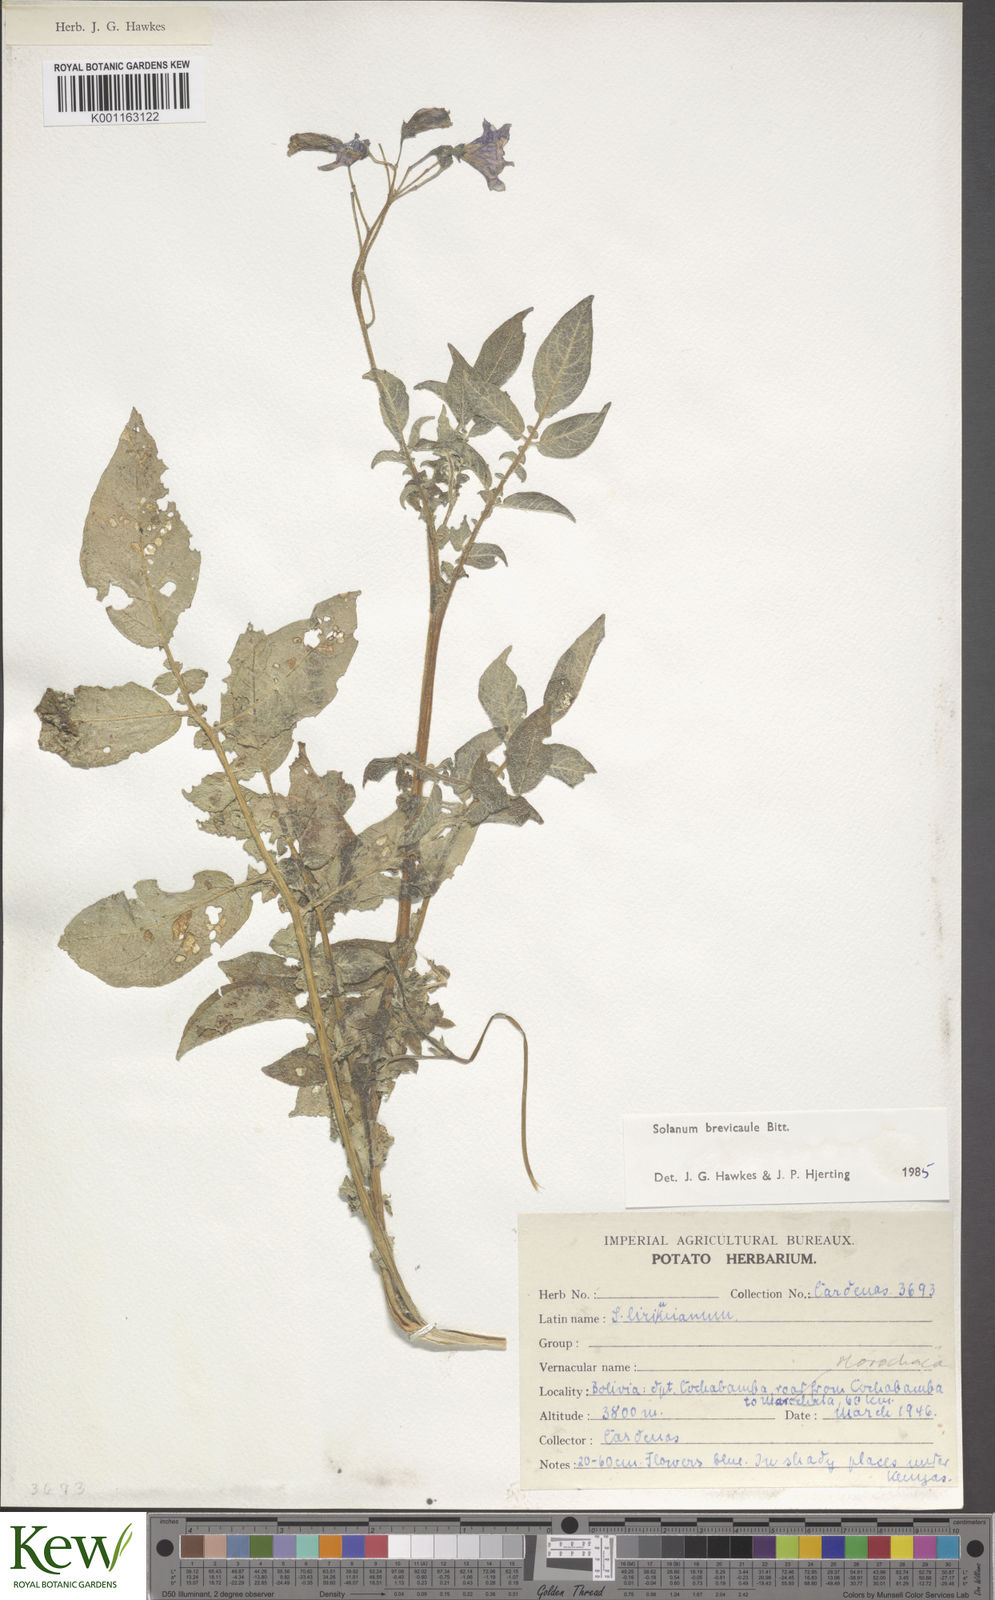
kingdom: Plantae
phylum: Tracheophyta
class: Magnoliopsida
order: Solanales
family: Solanaceae
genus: Solanum
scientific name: Solanum brevicaule
